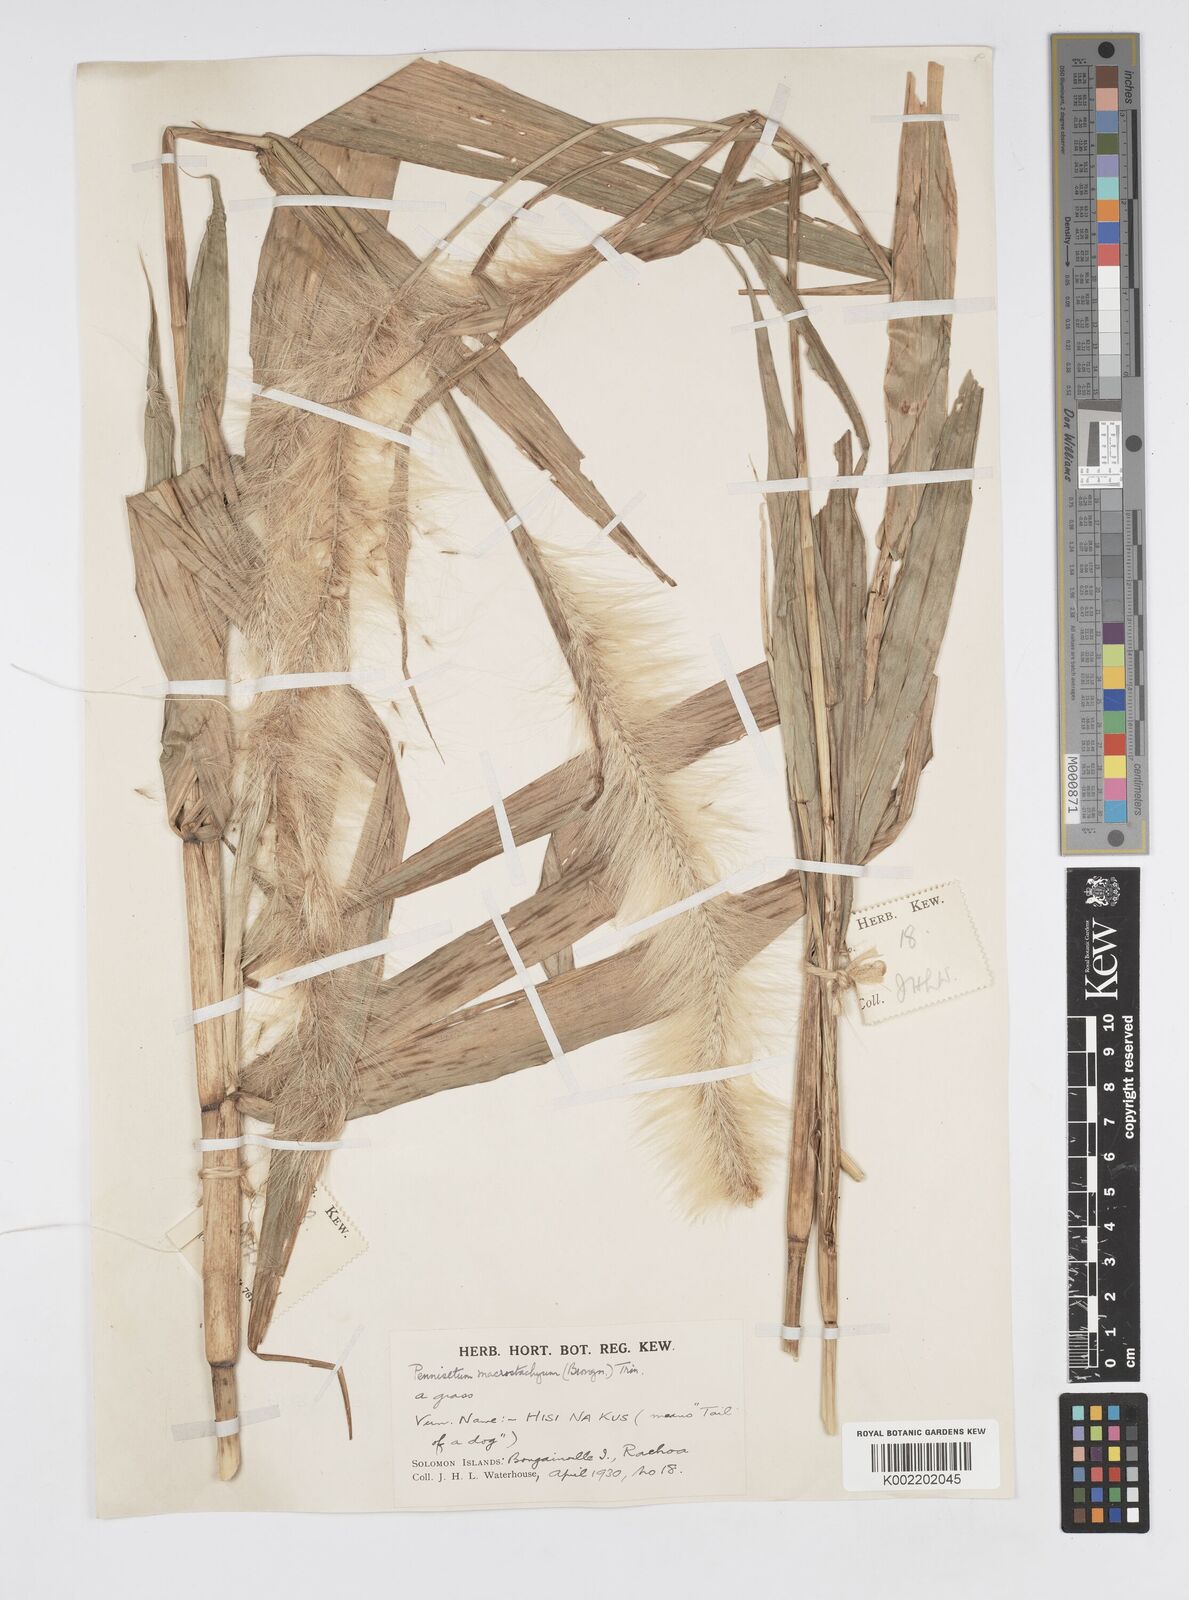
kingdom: Plantae
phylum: Tracheophyta
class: Liliopsida
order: Poales
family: Poaceae
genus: Cenchrus
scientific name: Cenchrus purpureus
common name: Elephant grass
